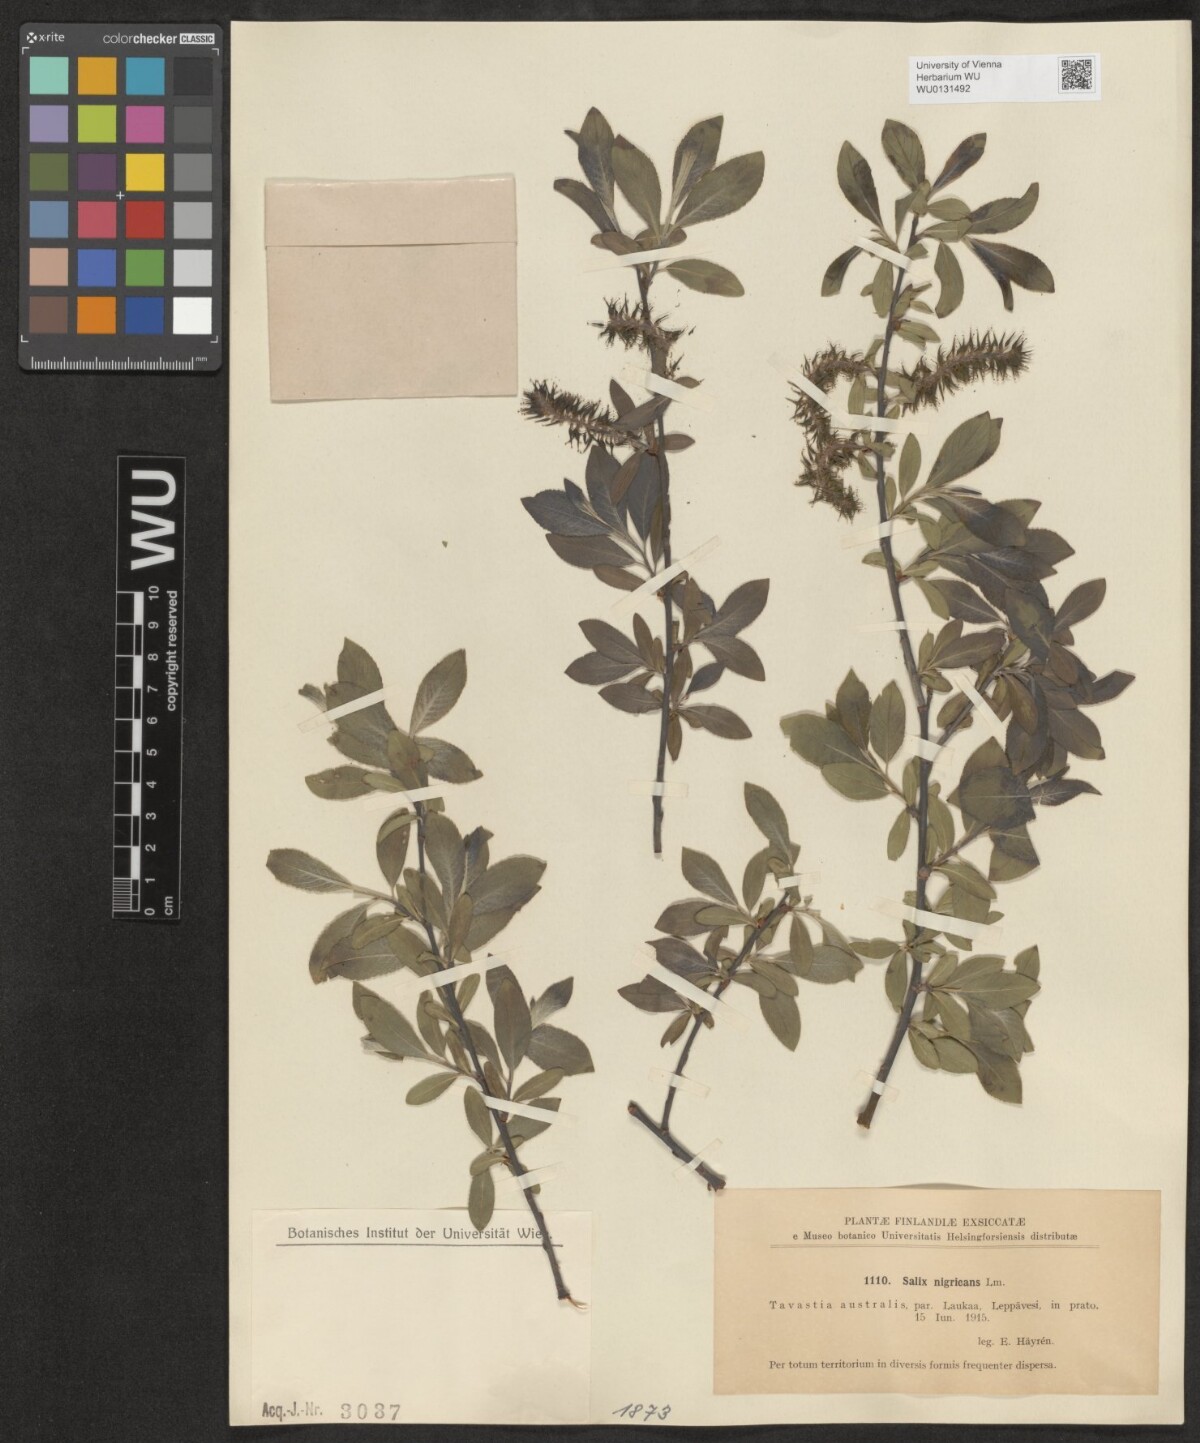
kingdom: Plantae
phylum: Tracheophyta
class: Magnoliopsida
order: Malpighiales
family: Salicaceae
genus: Salix
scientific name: Salix myrsinifolia
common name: Dark-leaved willow
